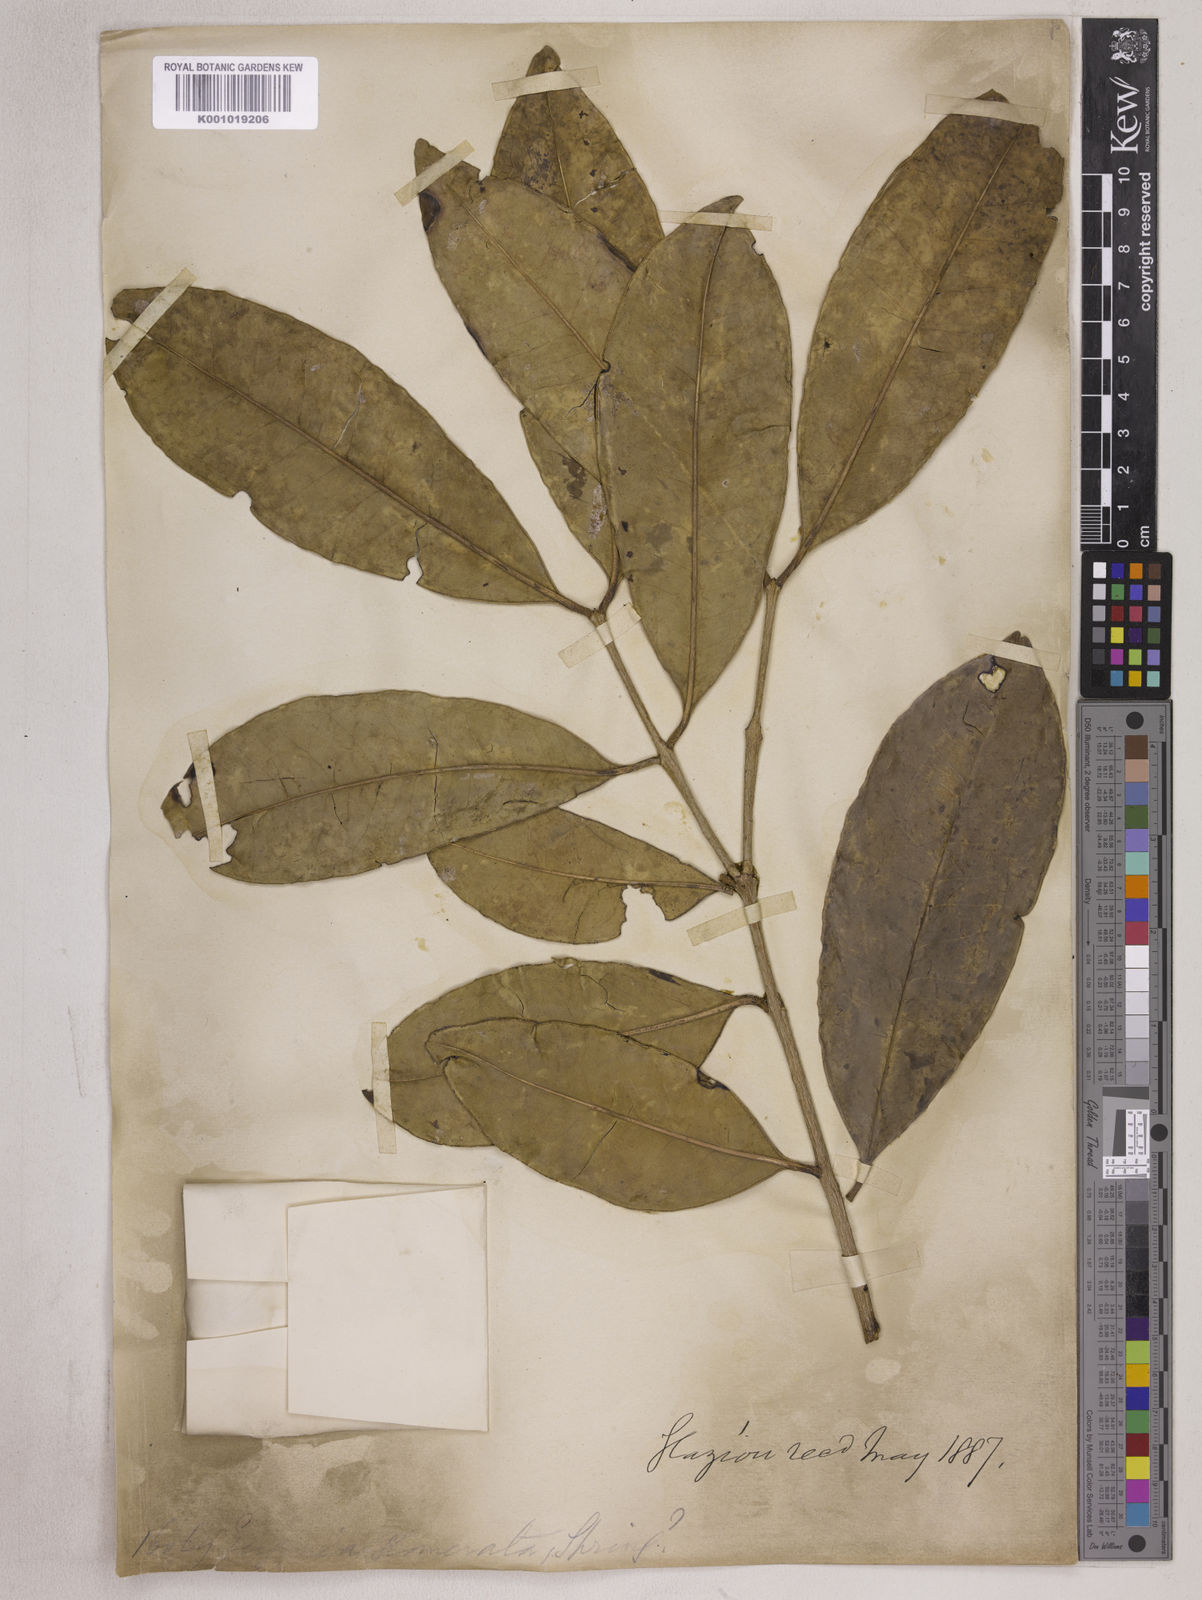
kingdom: Plantae
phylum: Tracheophyta
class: Magnoliopsida
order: Myrtales
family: Myrtaceae
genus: Eugenia
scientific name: Eugenia neoglomerata
